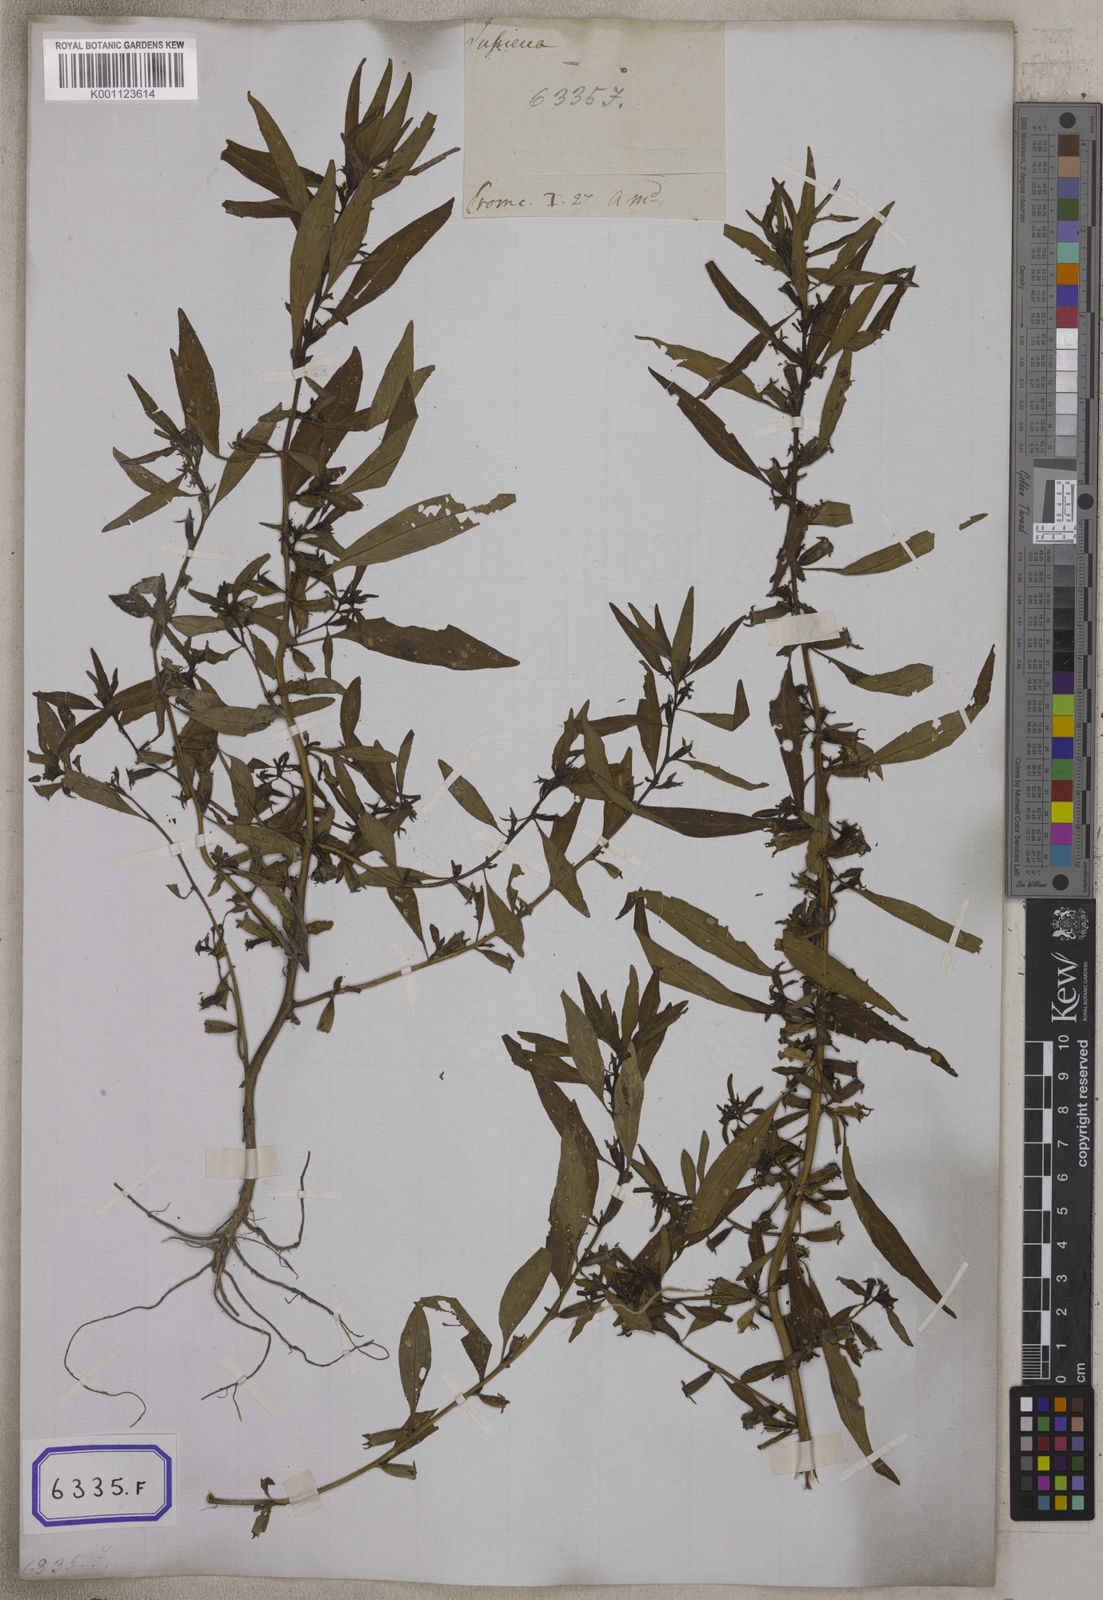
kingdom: Plantae
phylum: Tracheophyta
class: Magnoliopsida
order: Myrtales
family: Onagraceae
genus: Ludwigia
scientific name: Ludwigia perennis
